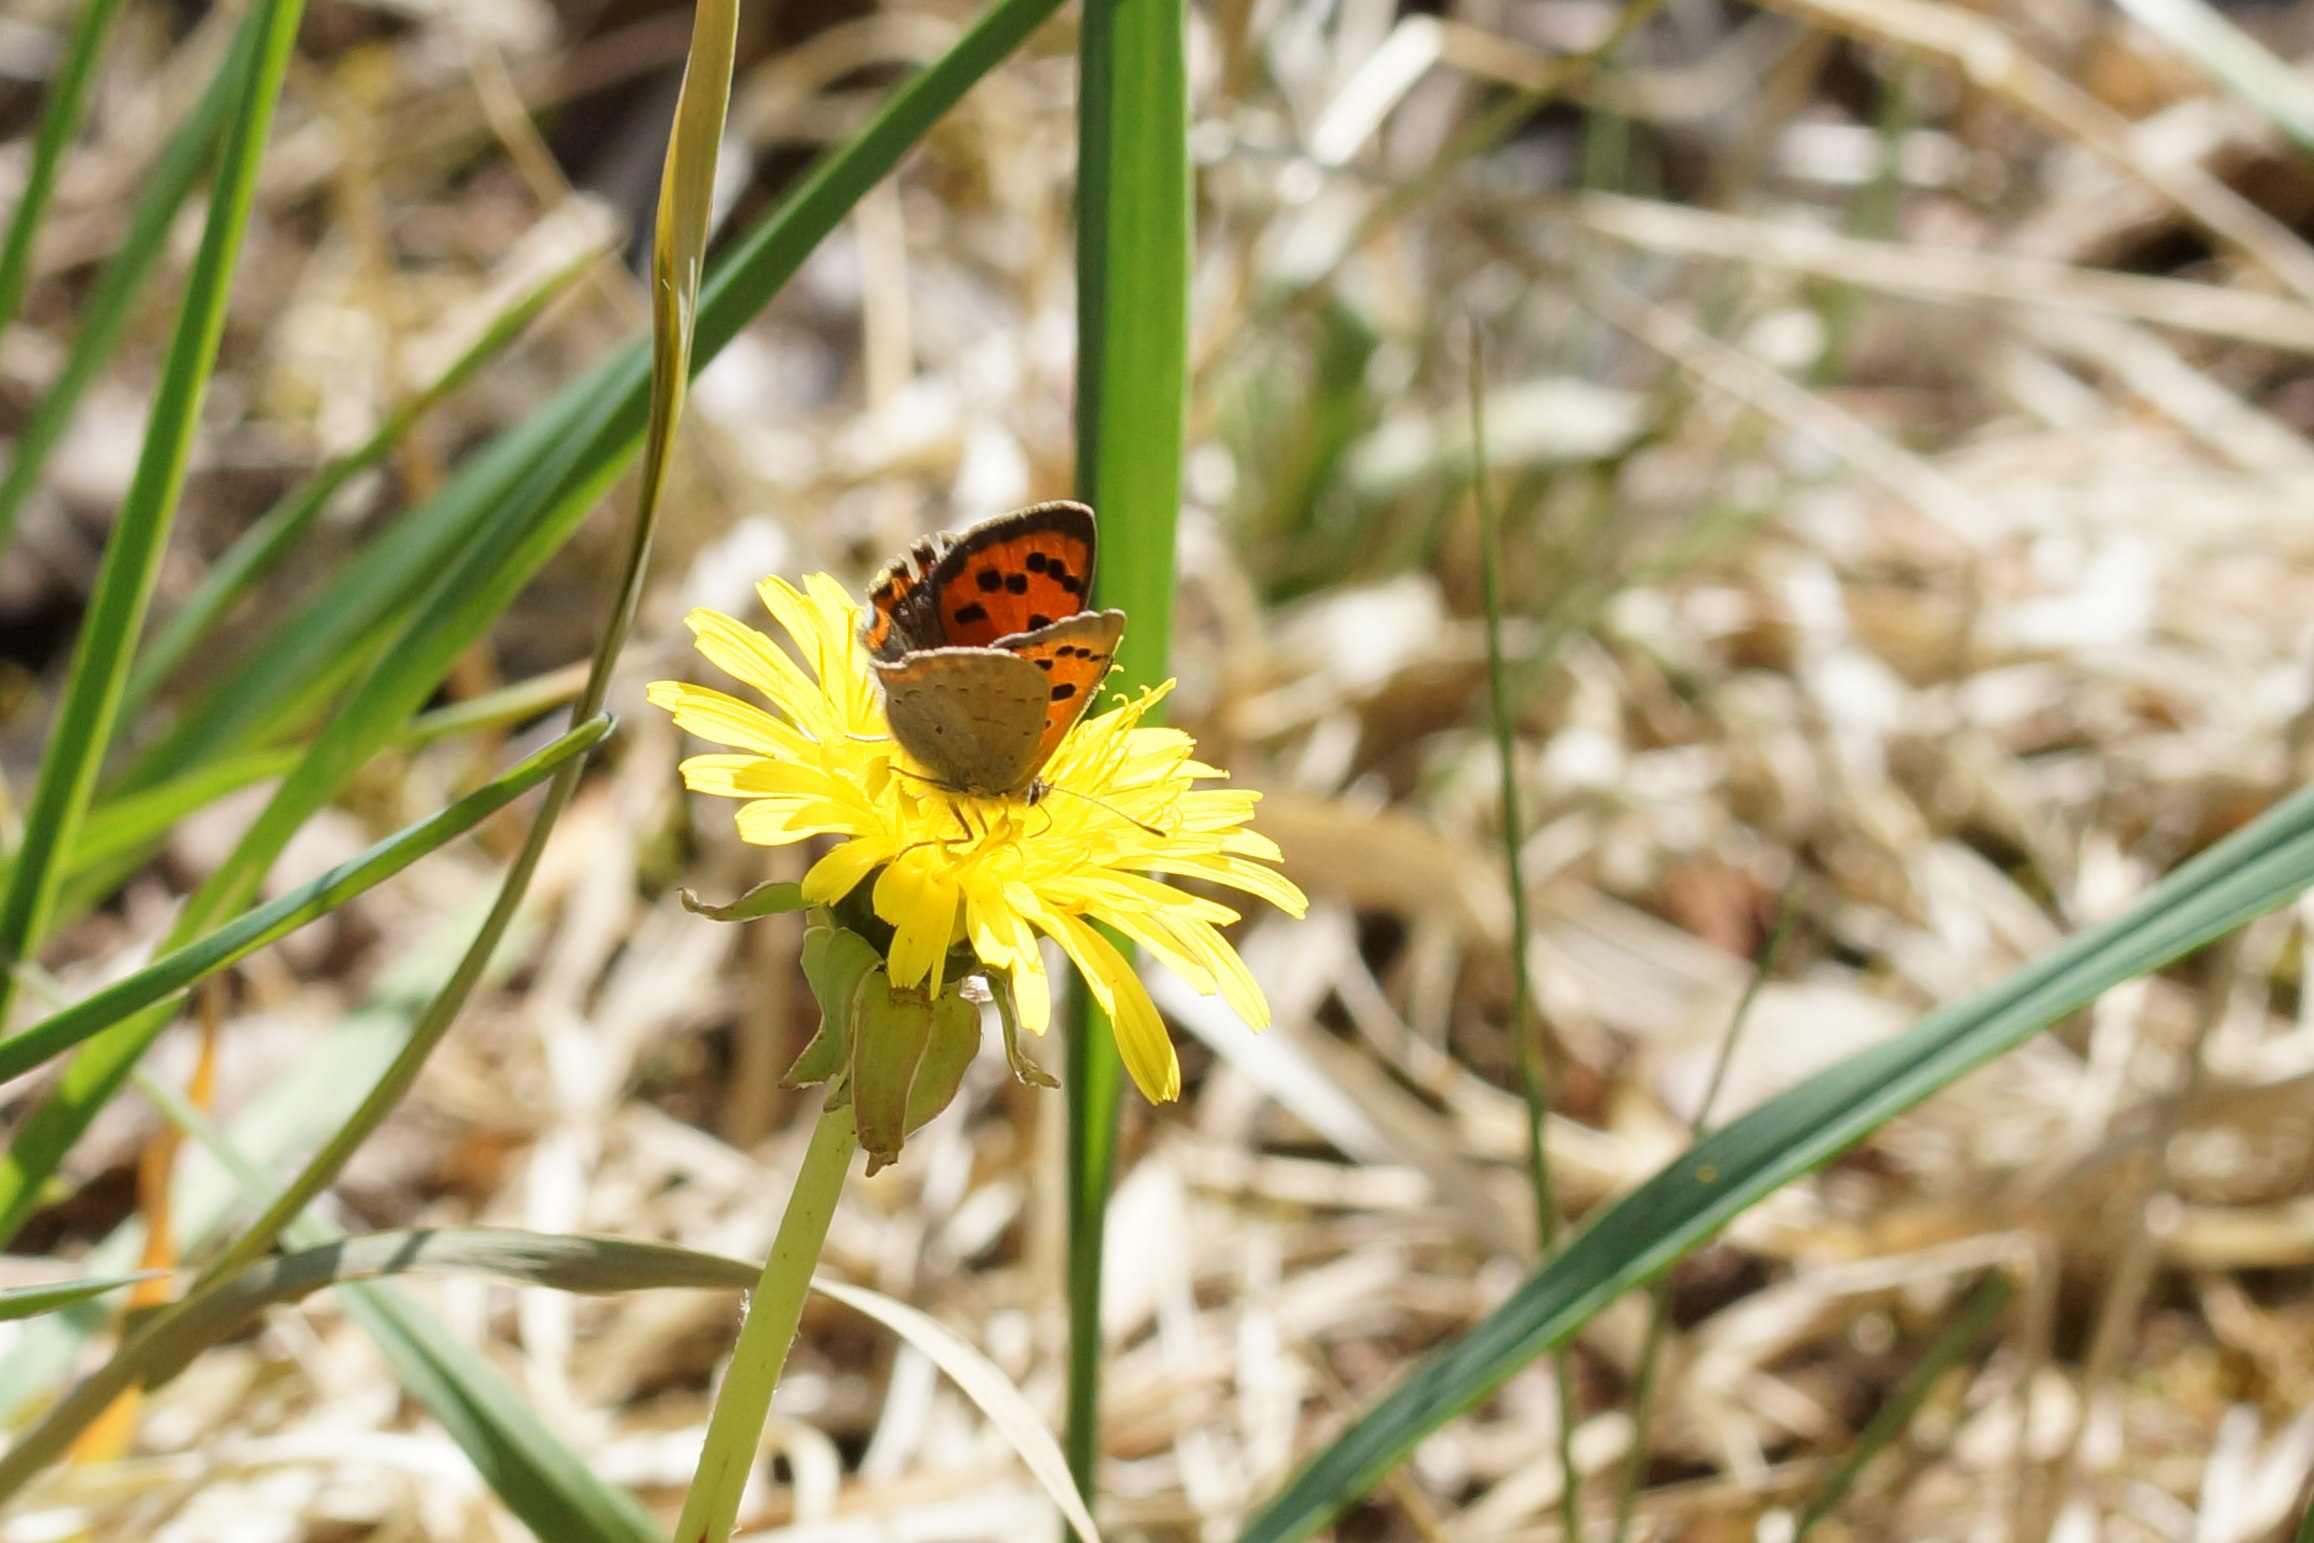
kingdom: Animalia
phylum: Arthropoda
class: Insecta
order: Lepidoptera
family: Lycaenidae
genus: Lycaena
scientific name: Lycaena phlaeas
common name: Lille ildfugl
